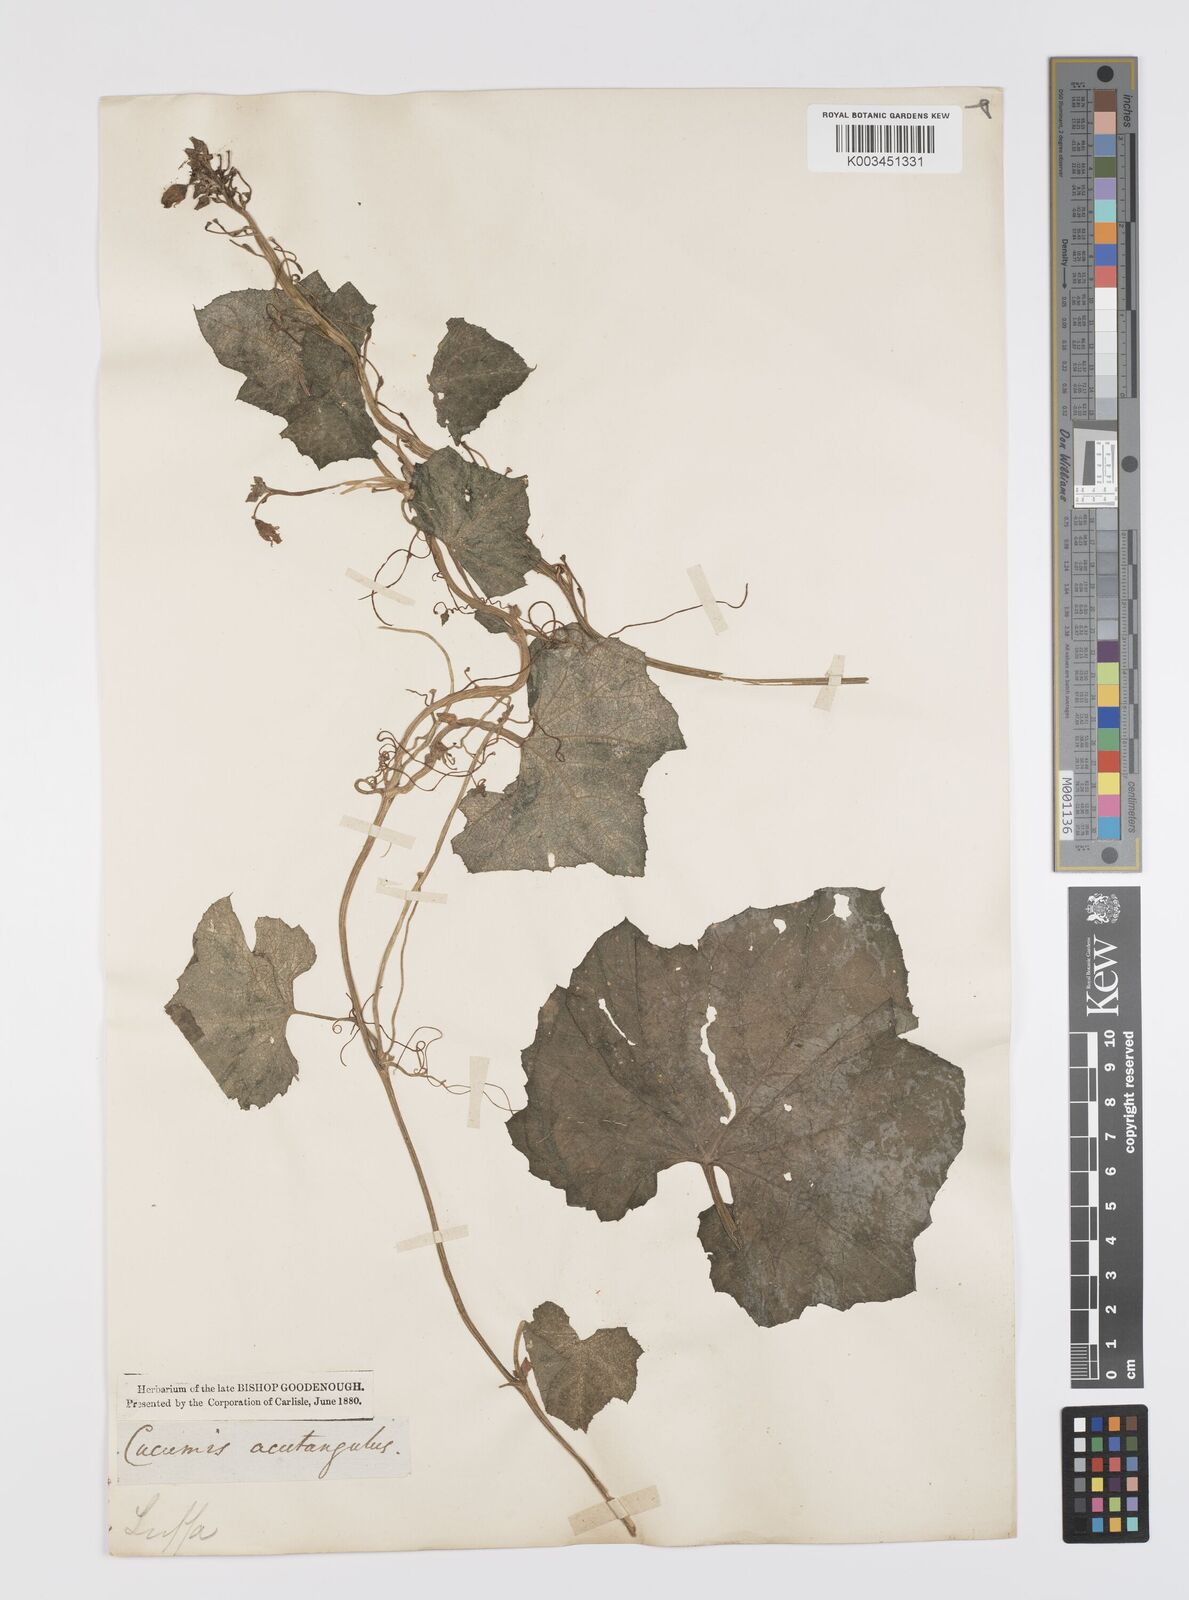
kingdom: Plantae
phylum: Tracheophyta
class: Magnoliopsida
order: Cucurbitales
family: Cucurbitaceae
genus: Luffa
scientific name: Luffa acutangula
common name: Sinkwa towelsponge
